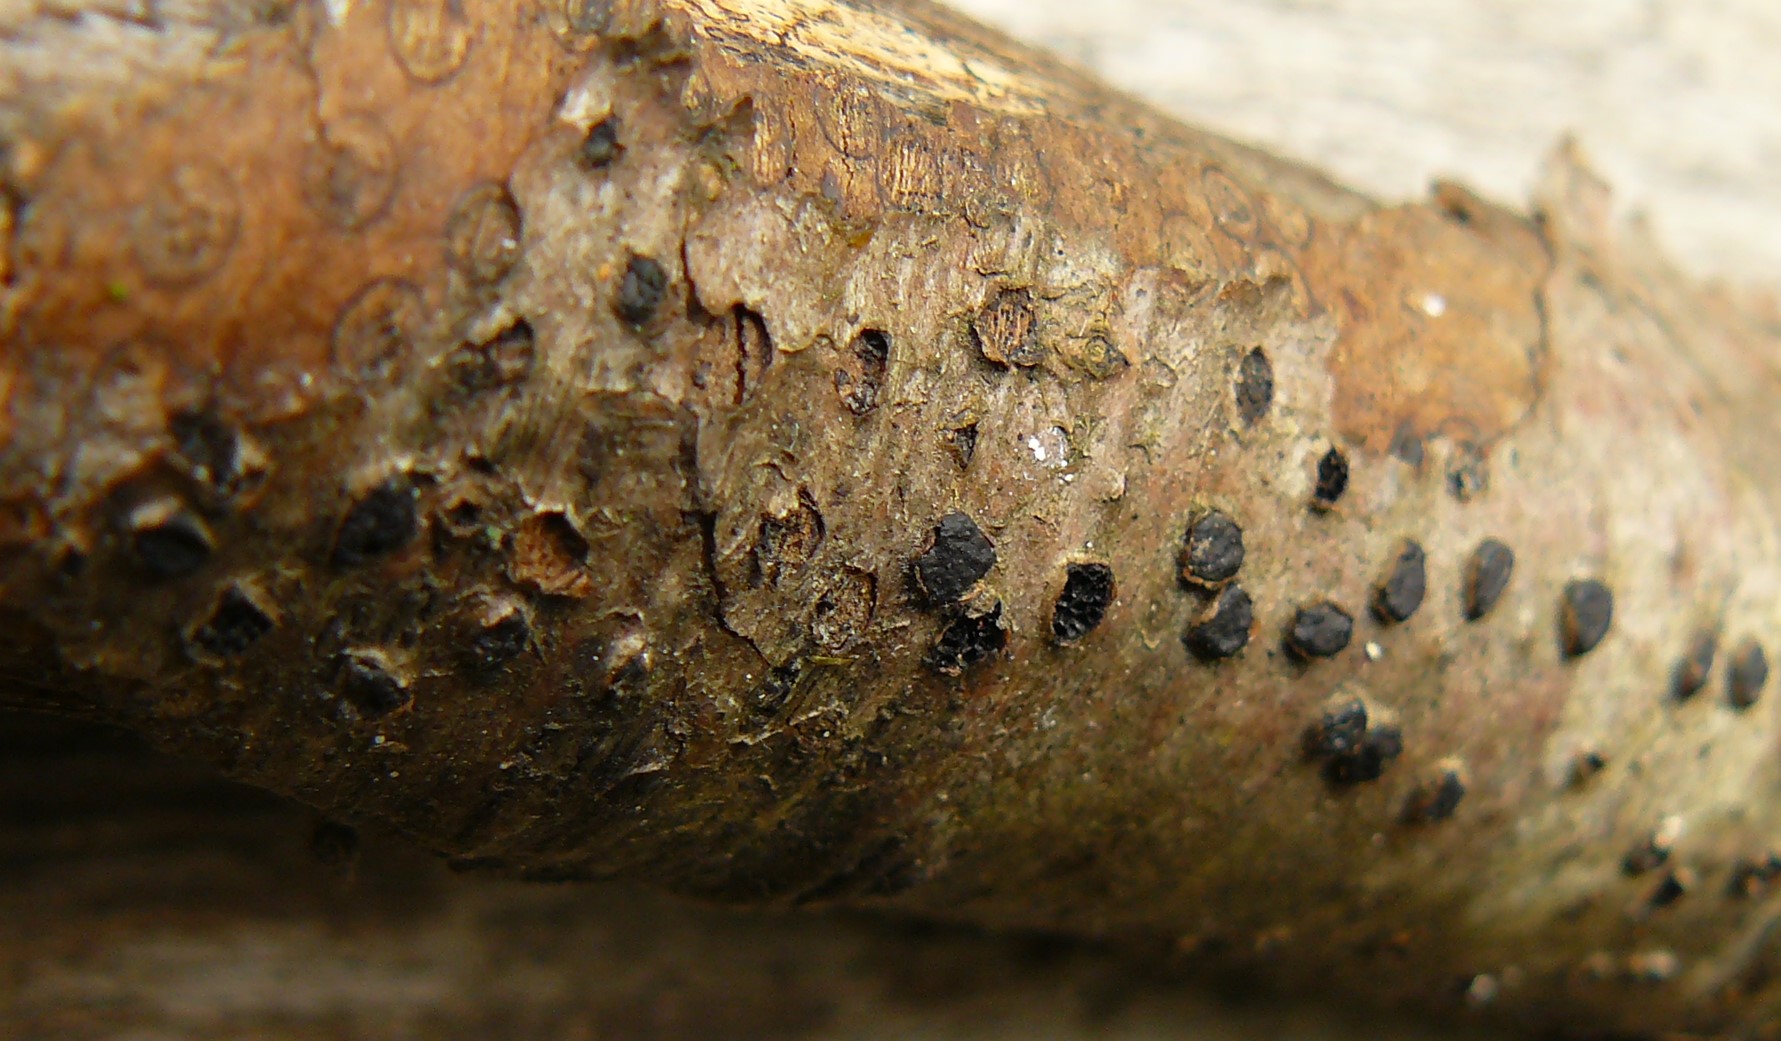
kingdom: Fungi
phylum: Ascomycota
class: Sordariomycetes
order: Xylariales
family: Diatrypaceae
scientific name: Diatrypaceae
